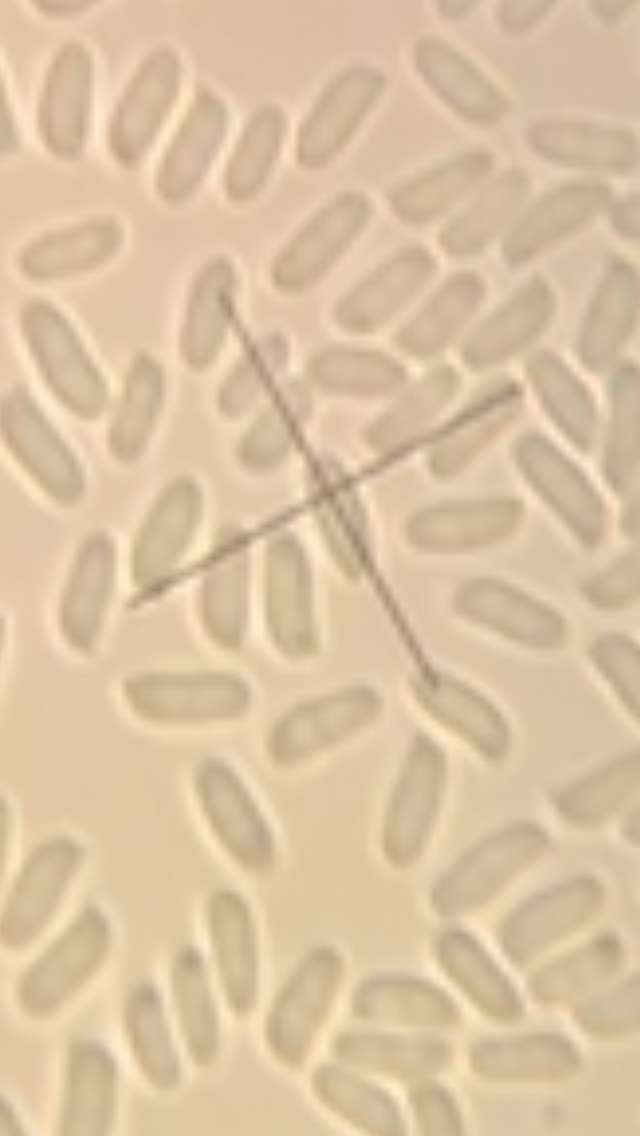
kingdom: Fungi
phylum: Basidiomycota
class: Agaricomycetes
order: Russulales
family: Stereaceae
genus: Stereum
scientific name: Stereum hirsutum
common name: håret lædersvamp
